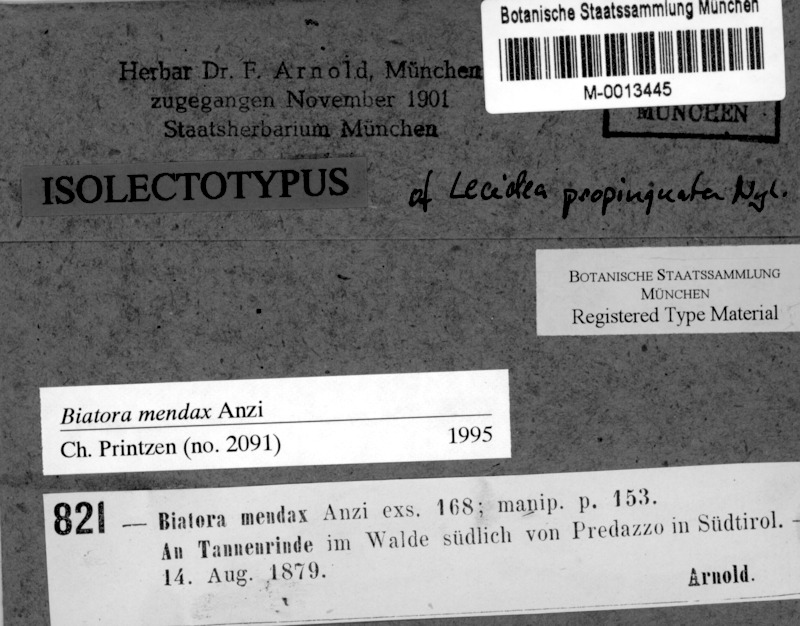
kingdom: Fungi
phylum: Ascomycota
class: Lecanoromycetes
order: Lecanorales
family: Ramalinaceae
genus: Biatora
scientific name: Biatora mendax
